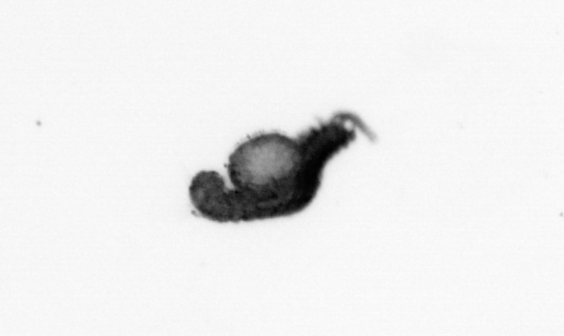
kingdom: Animalia
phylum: Annelida
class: Polychaeta
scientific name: Polychaeta
